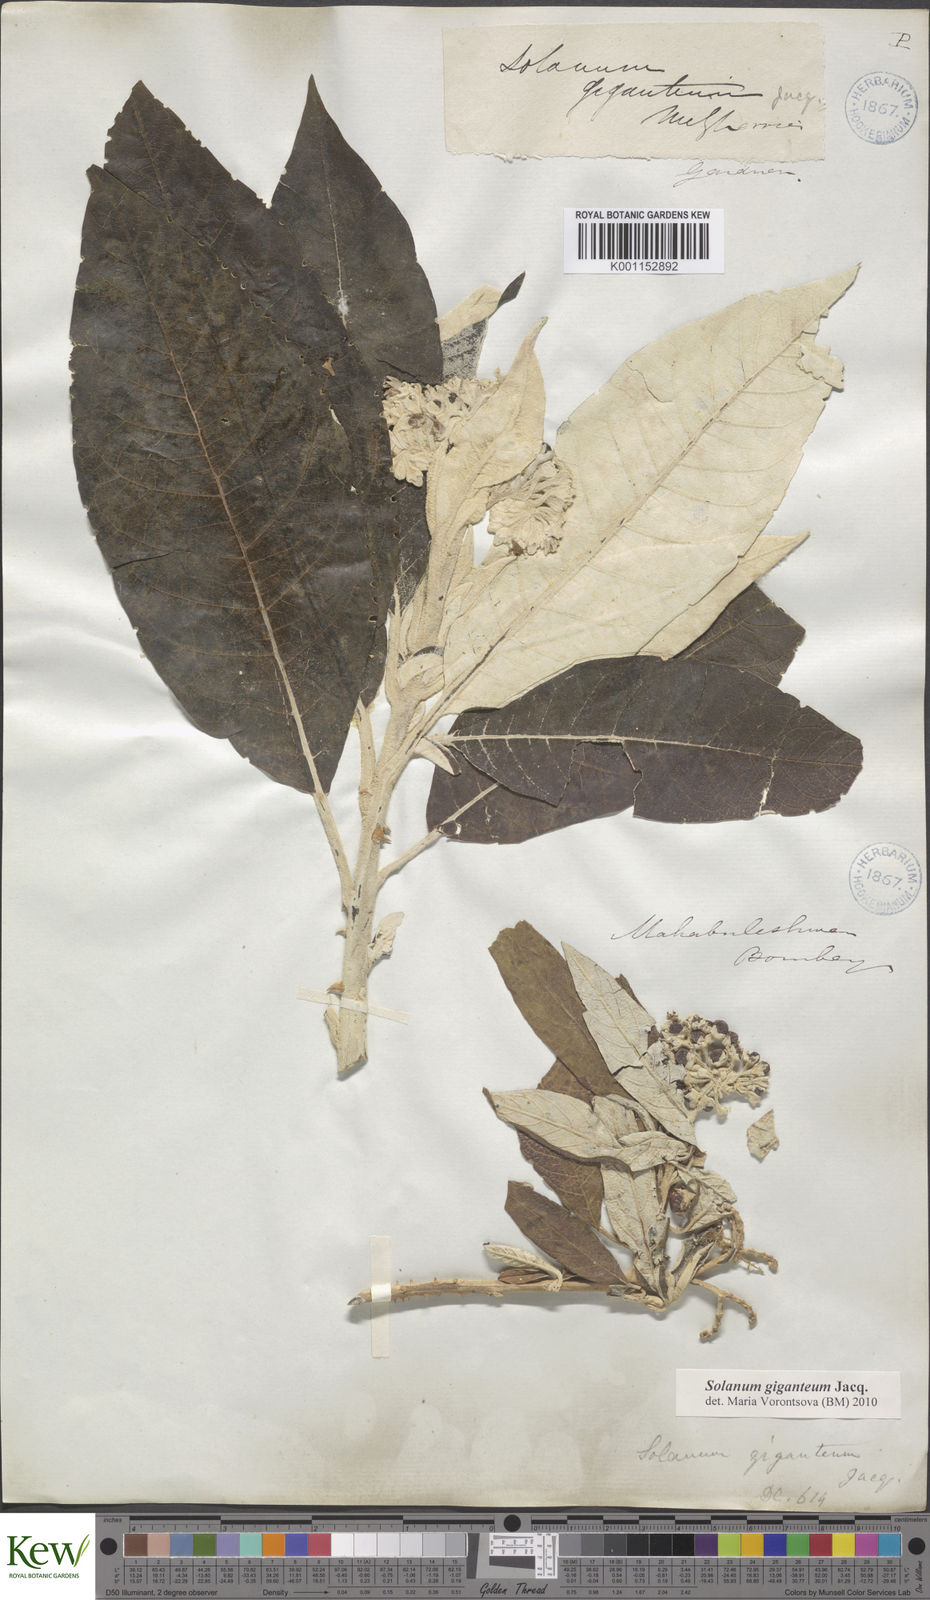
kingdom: Plantae
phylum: Tracheophyta
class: Magnoliopsida
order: Solanales
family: Solanaceae
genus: Solanum
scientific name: Solanum giganteum
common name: Healing-leaf-tree
